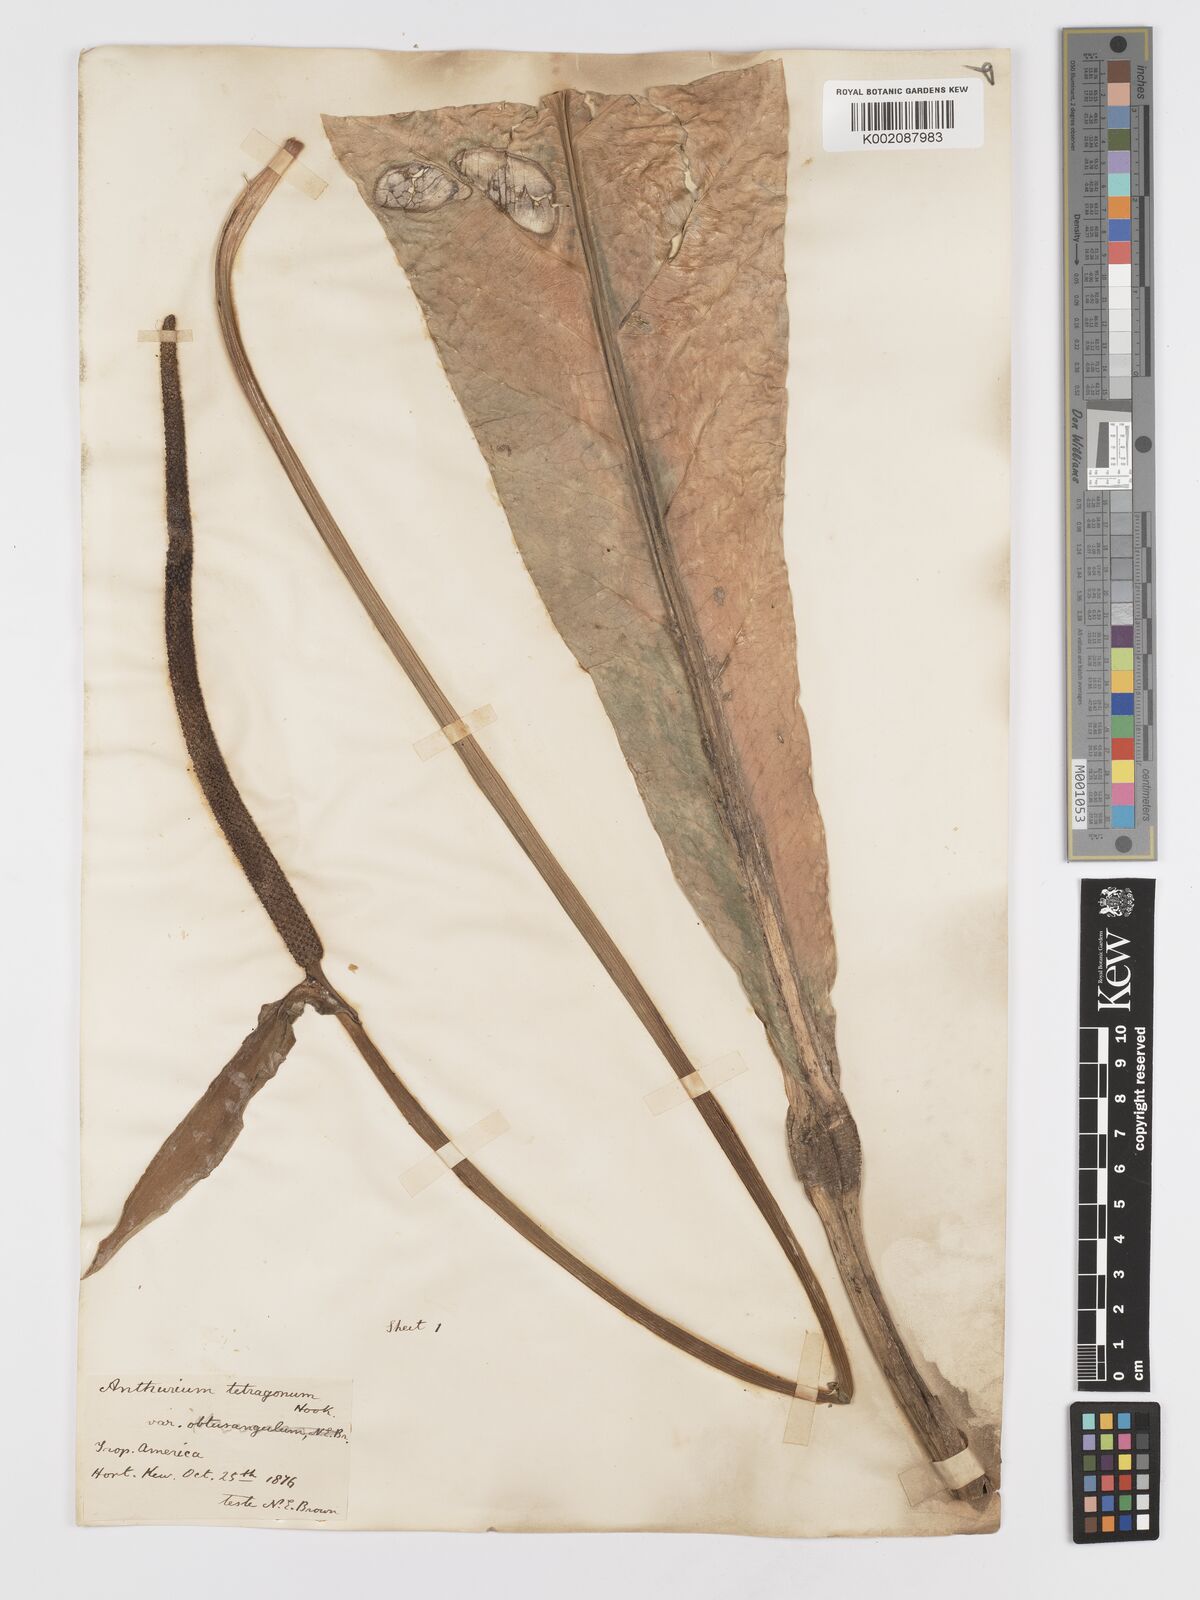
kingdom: Plantae
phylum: Tracheophyta
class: Liliopsida
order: Alismatales
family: Araceae
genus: Anthurium
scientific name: Anthurium schlechtendalii
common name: Laceleaf
